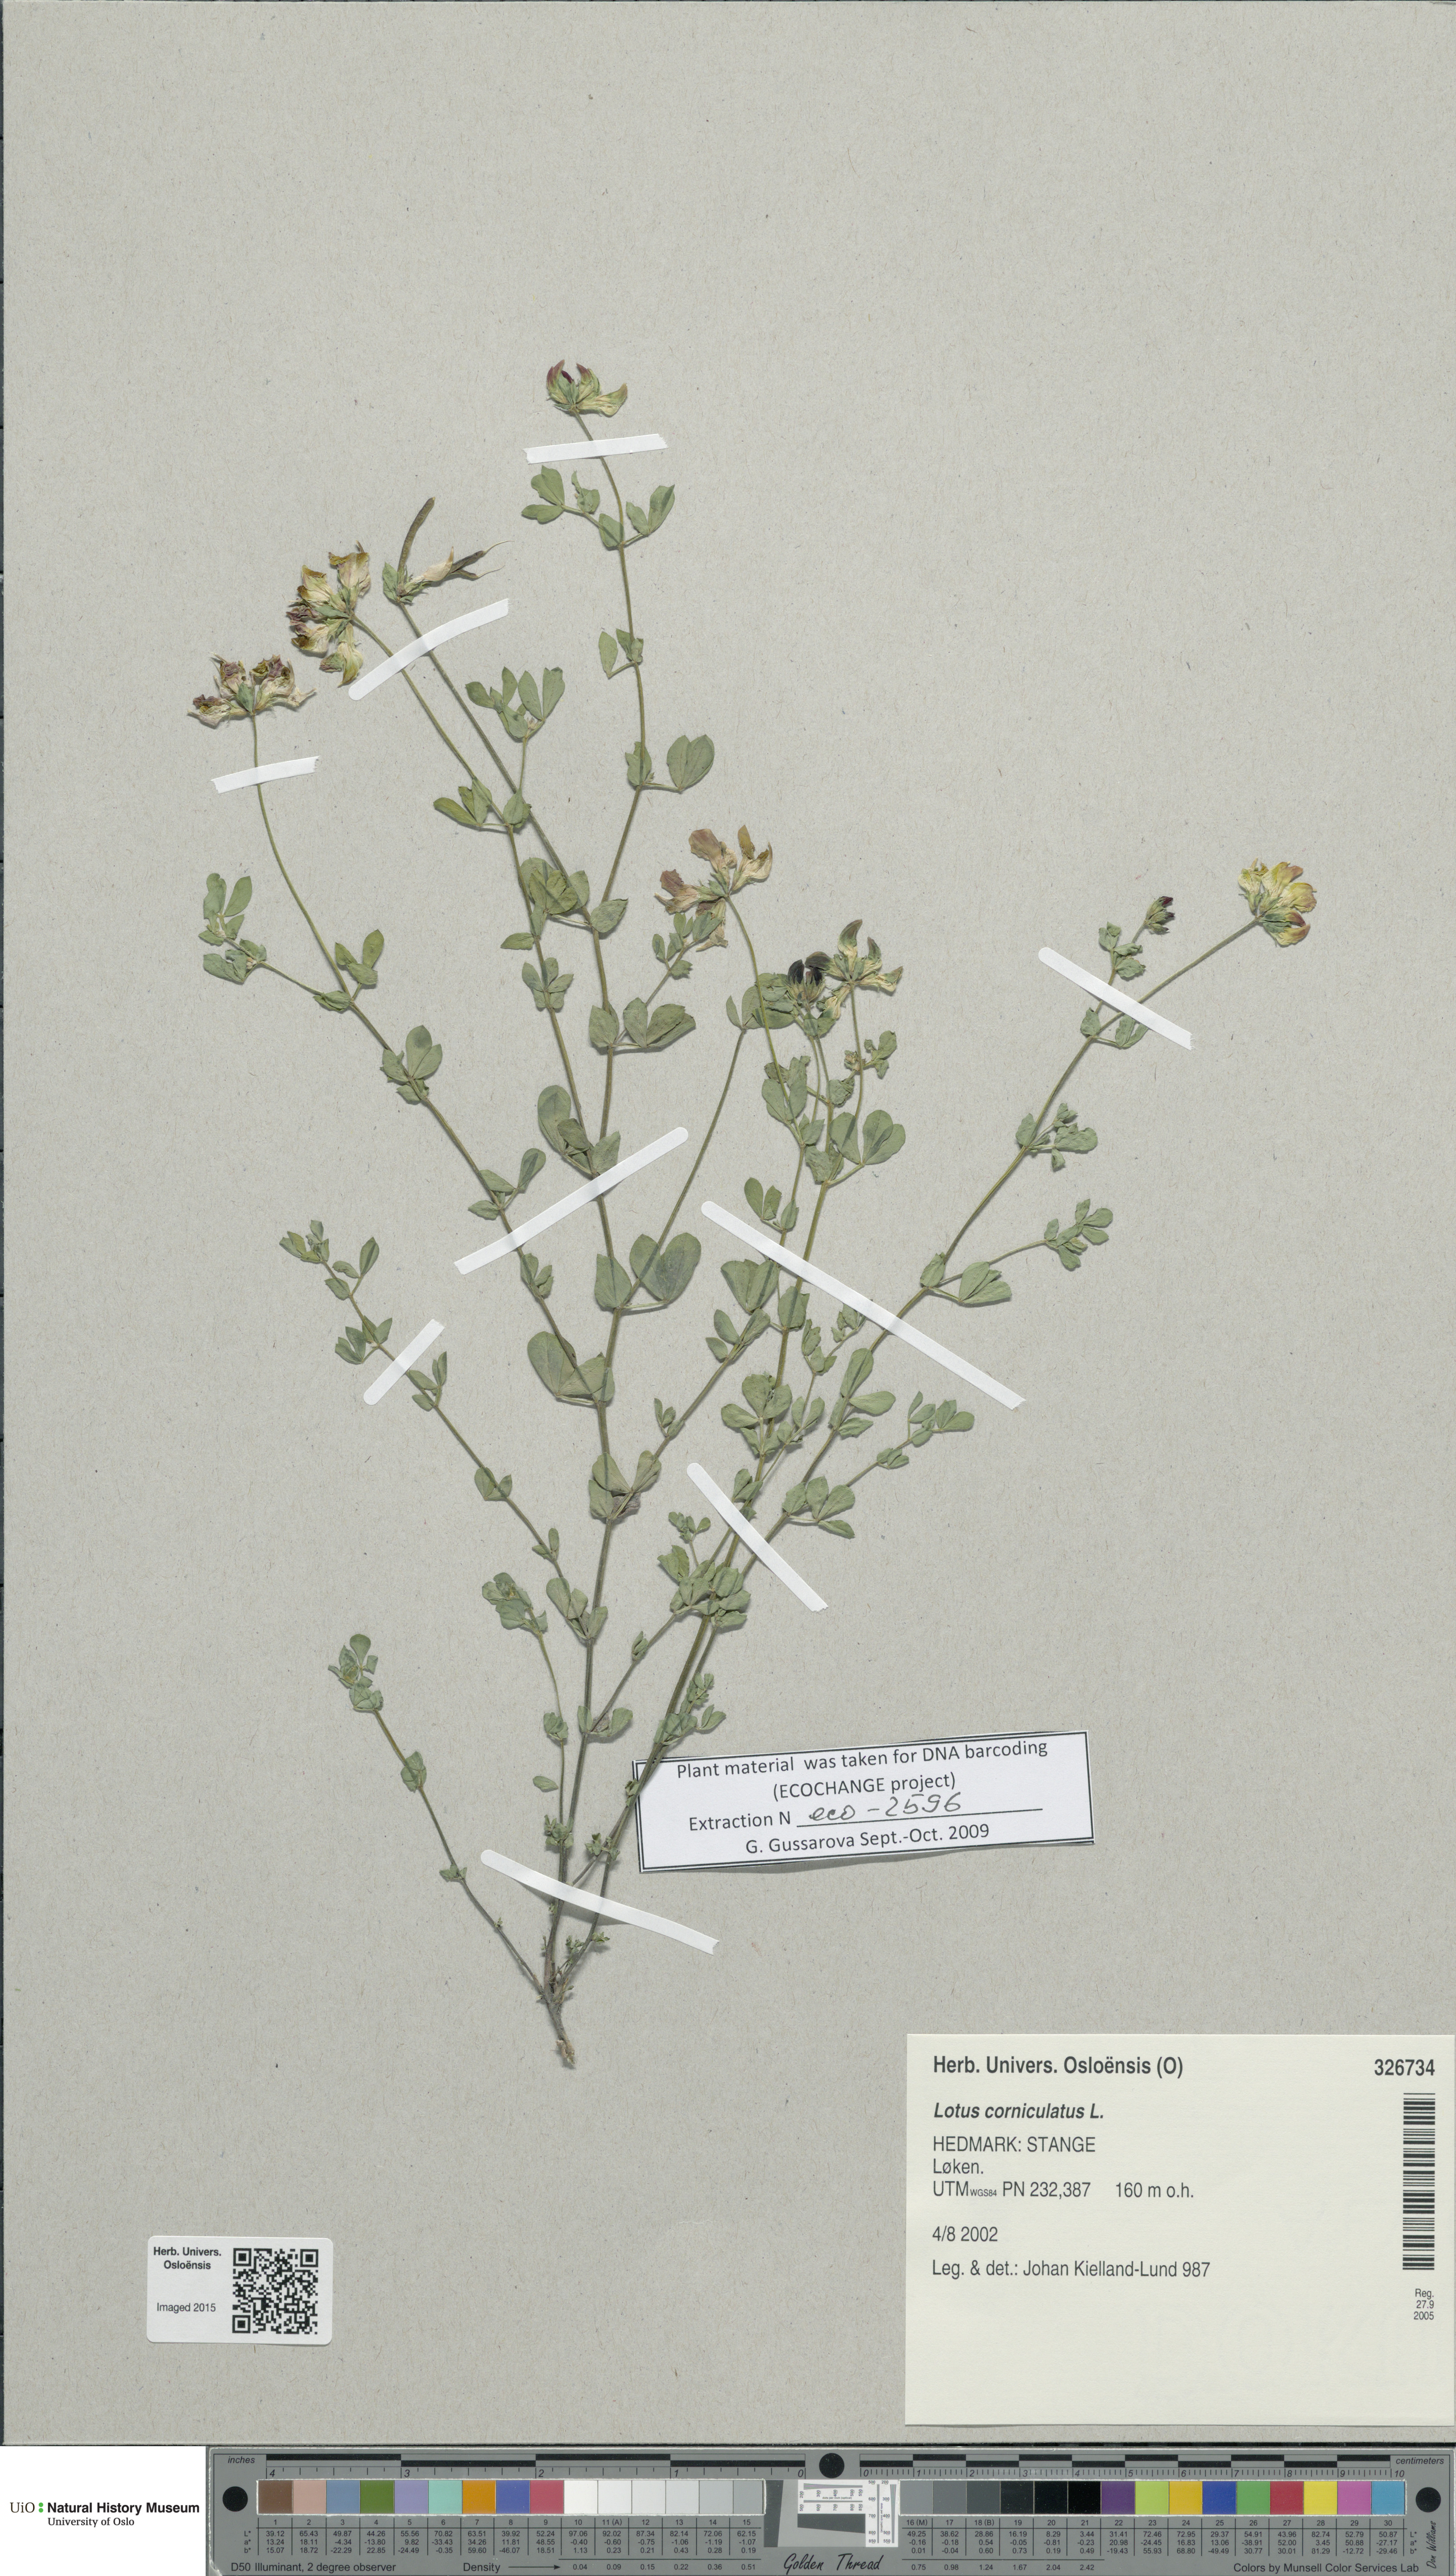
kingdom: Plantae
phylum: Tracheophyta
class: Magnoliopsida
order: Fabales
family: Fabaceae
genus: Lotus
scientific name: Lotus corniculatus
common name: Common bird's-foot-trefoil
